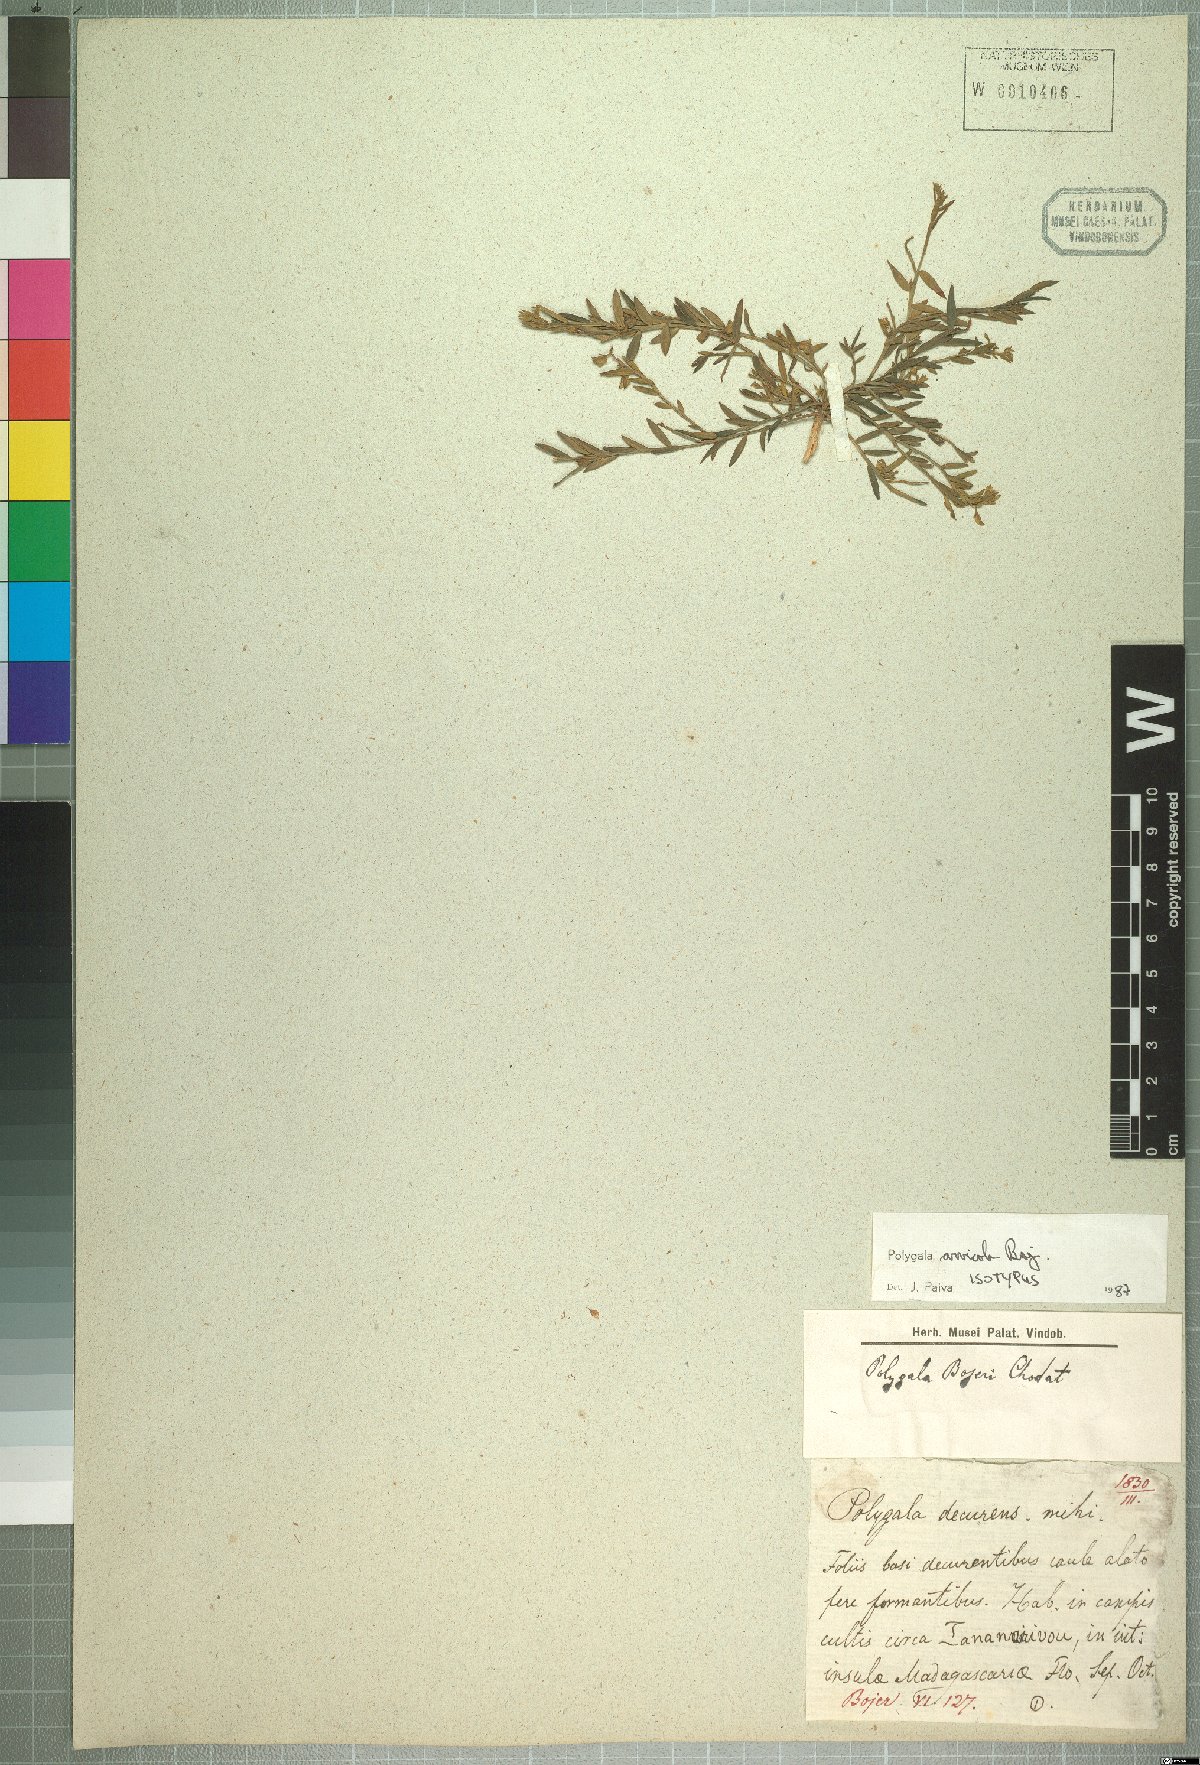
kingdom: Plantae
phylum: Tracheophyta
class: Magnoliopsida
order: Fabales
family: Polygalaceae
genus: Polygala
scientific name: Polygala arvicola
